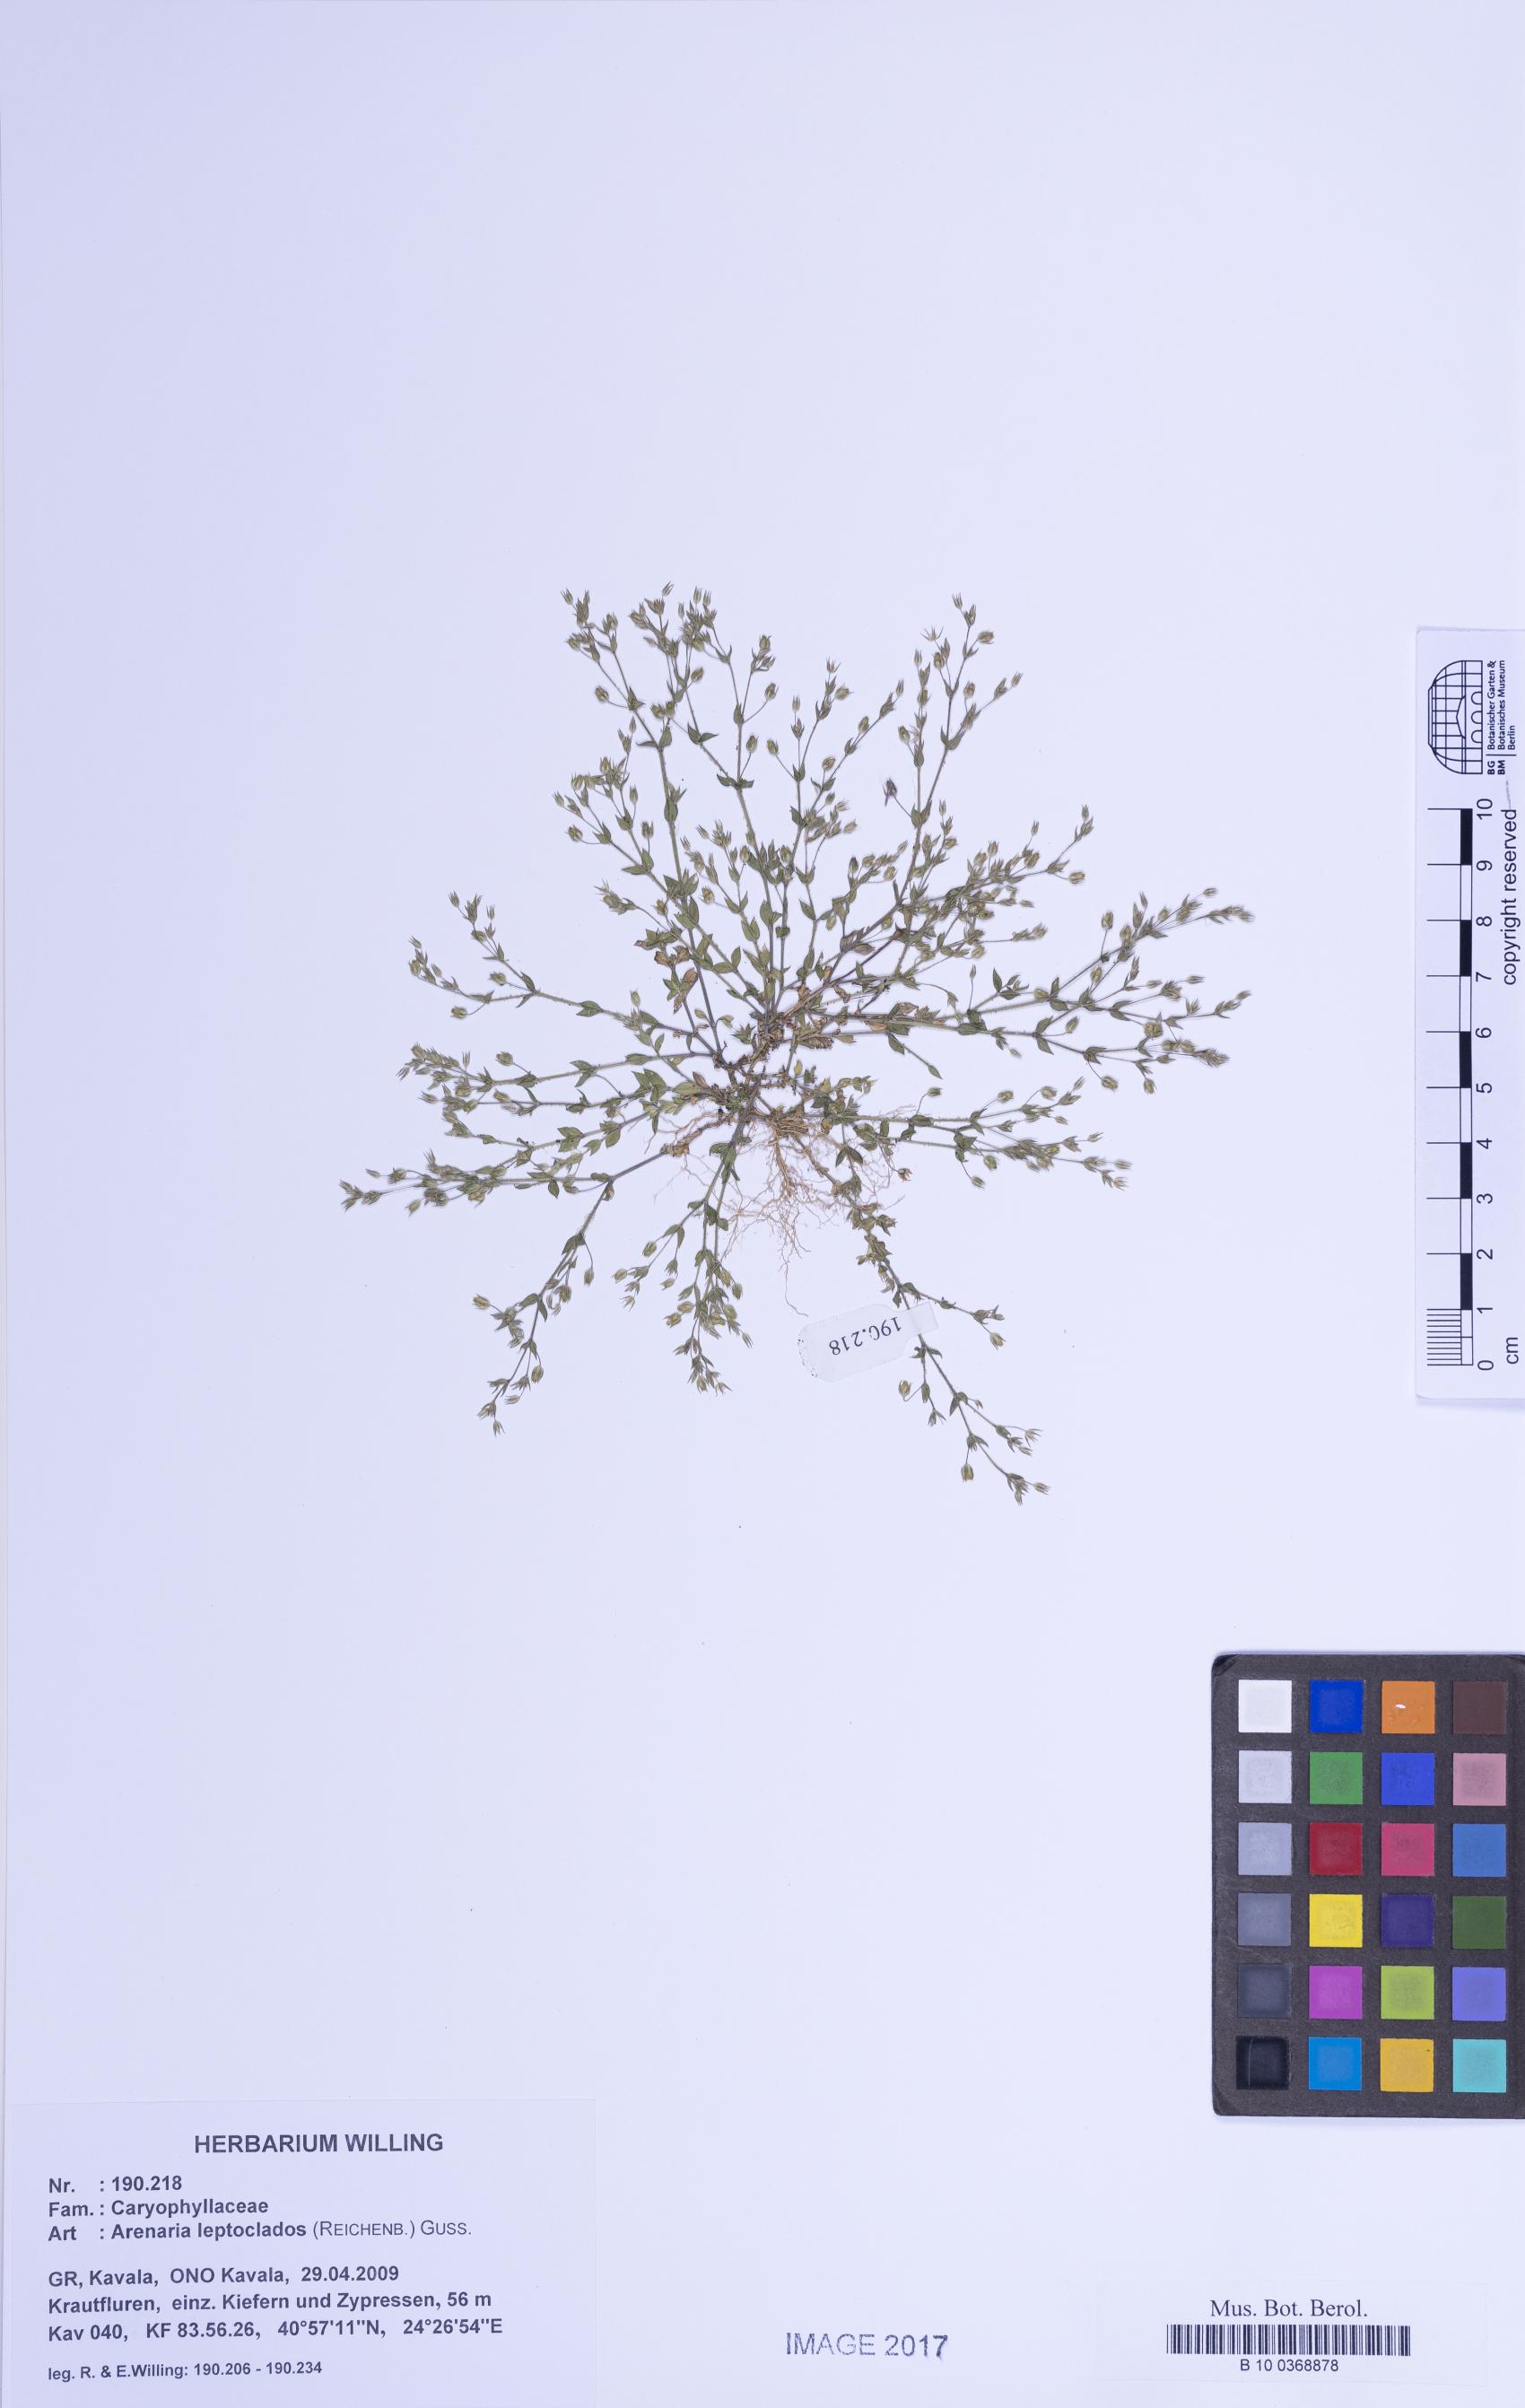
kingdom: Plantae
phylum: Tracheophyta
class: Magnoliopsida
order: Caryophyllales
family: Caryophyllaceae
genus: Arenaria
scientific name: Arenaria leptoclados
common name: Thyme-leaved sandwort
